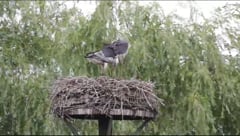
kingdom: Animalia
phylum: Chordata
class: Aves
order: Ciconiiformes
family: Ciconiidae
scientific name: Ciconiidae
